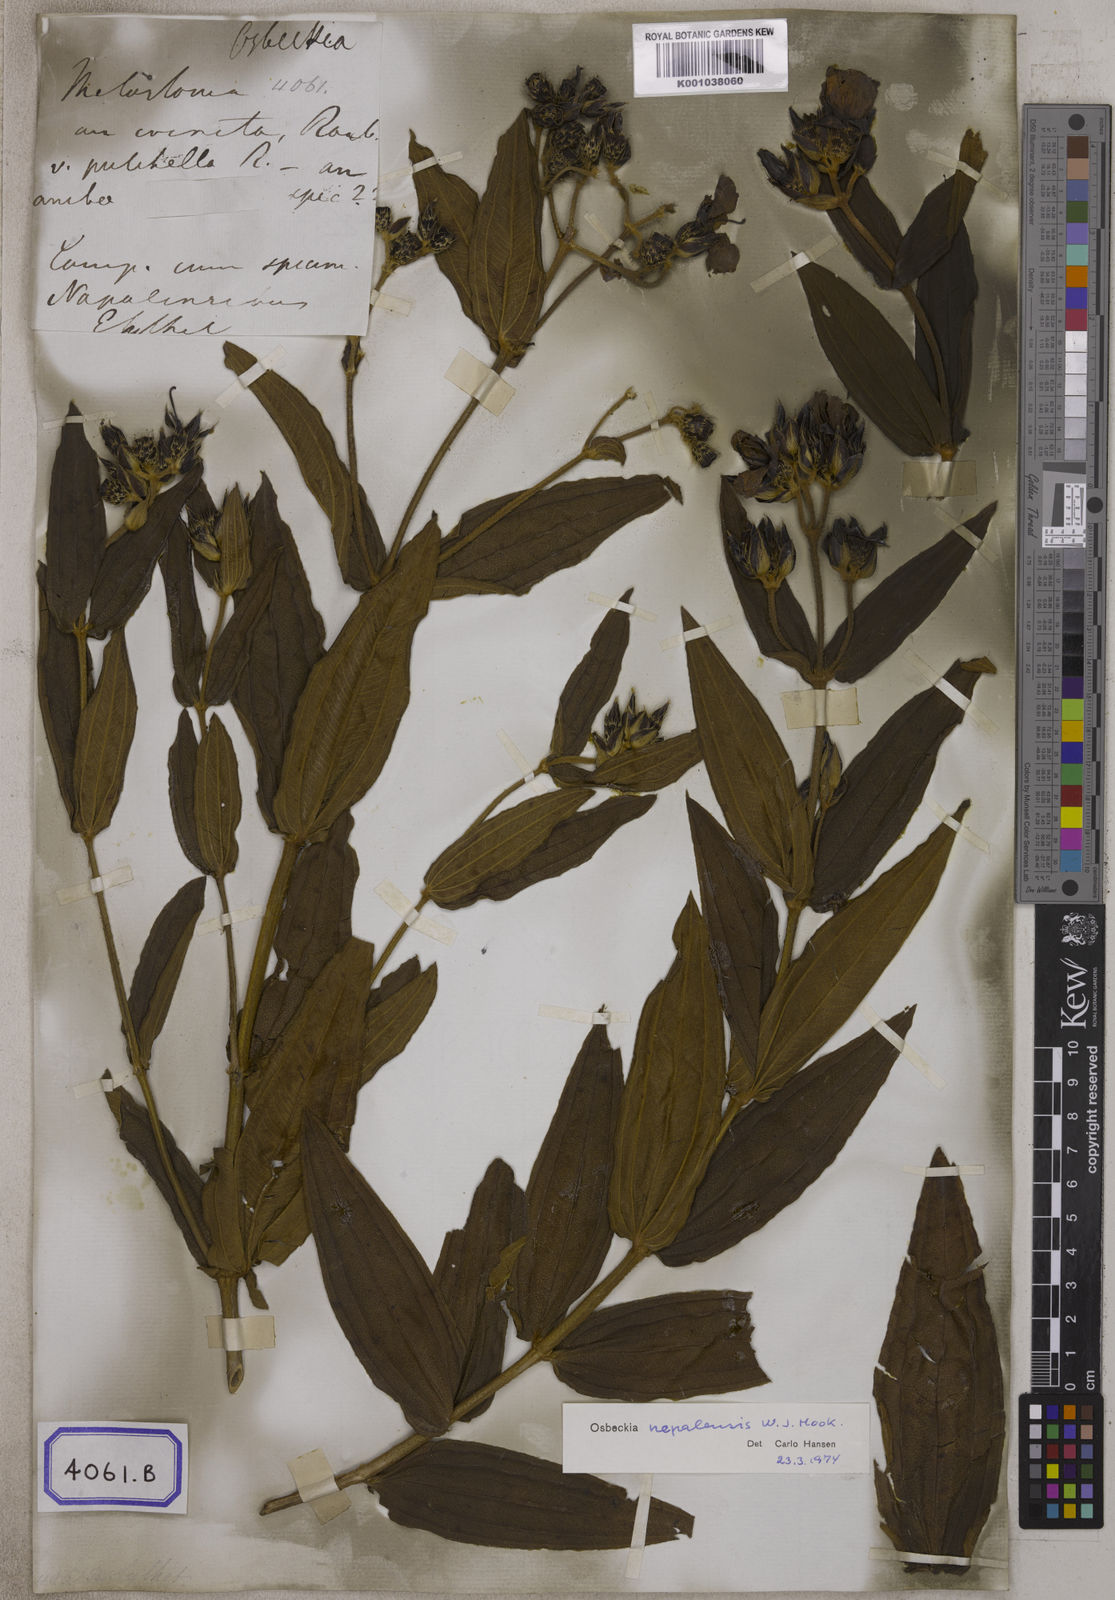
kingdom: Plantae
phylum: Tracheophyta
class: Magnoliopsida
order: Myrtales
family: Melastomataceae
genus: Osbeckia
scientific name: Osbeckia nepalensis
